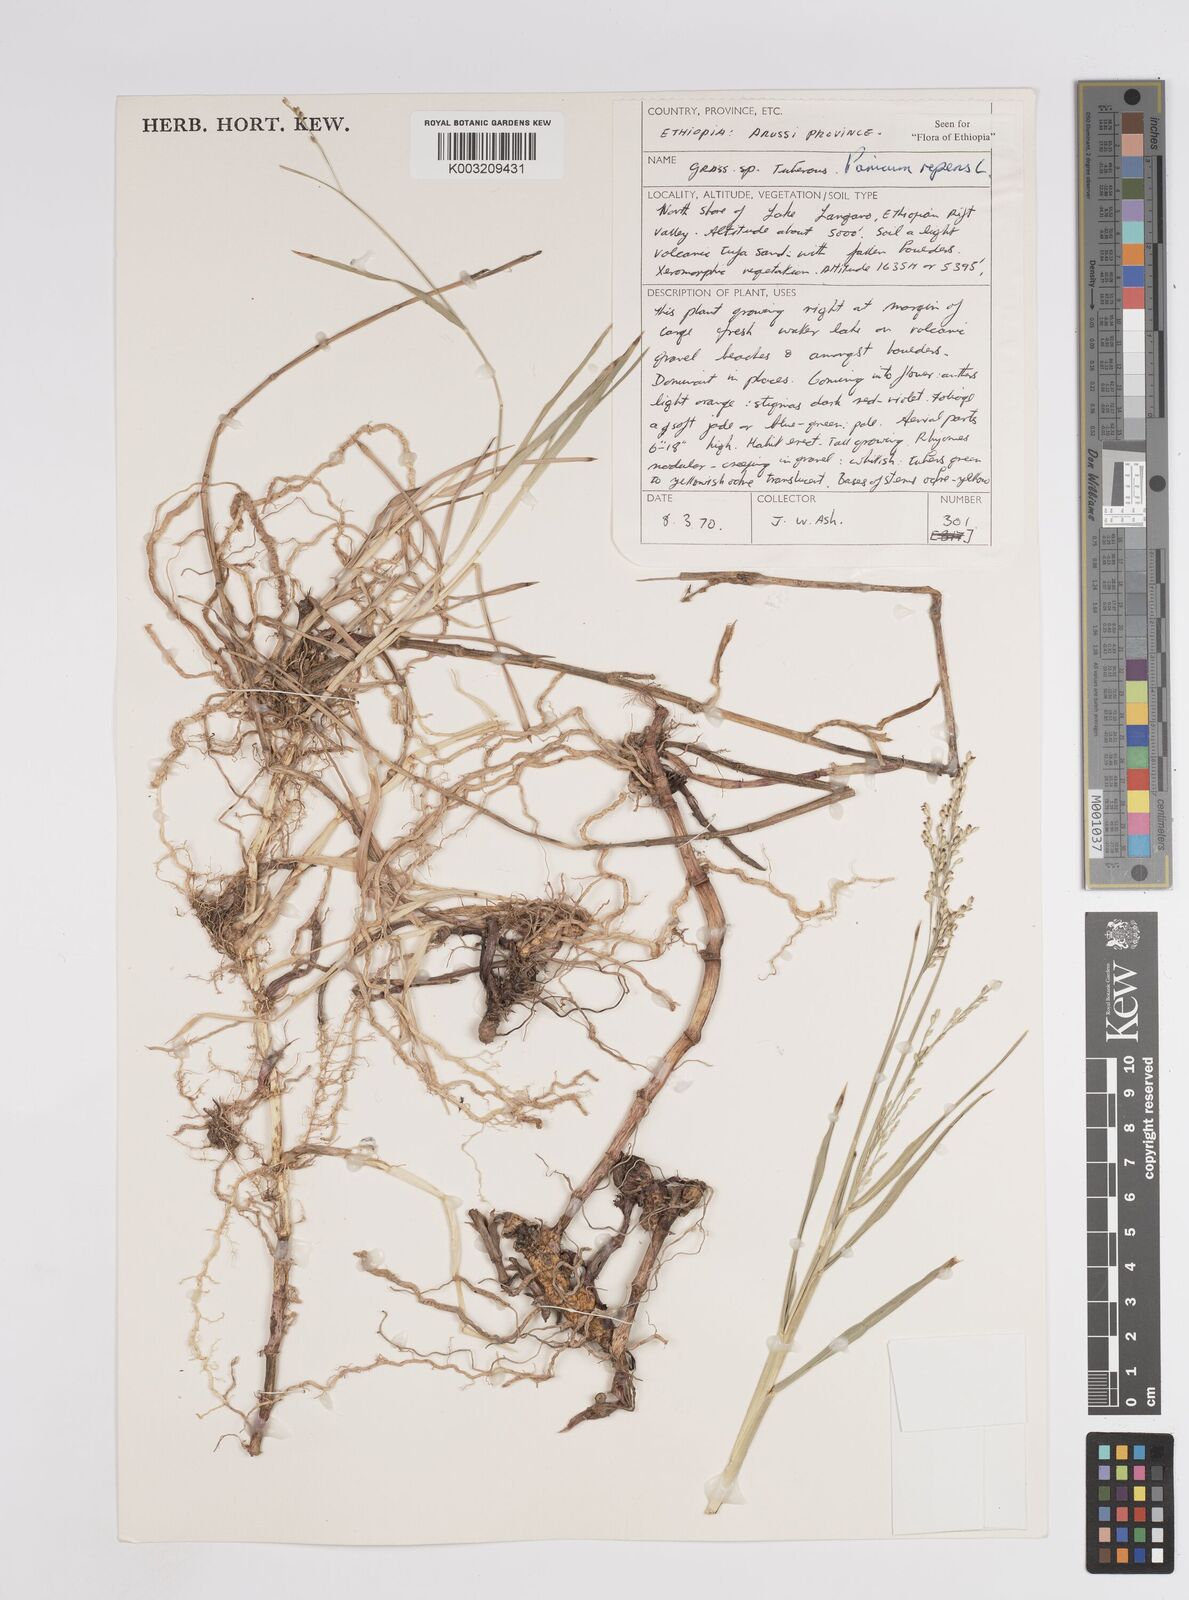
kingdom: Plantae
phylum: Tracheophyta
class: Liliopsida
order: Poales
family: Poaceae
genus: Panicum
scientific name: Panicum repens
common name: Torpedo grass
